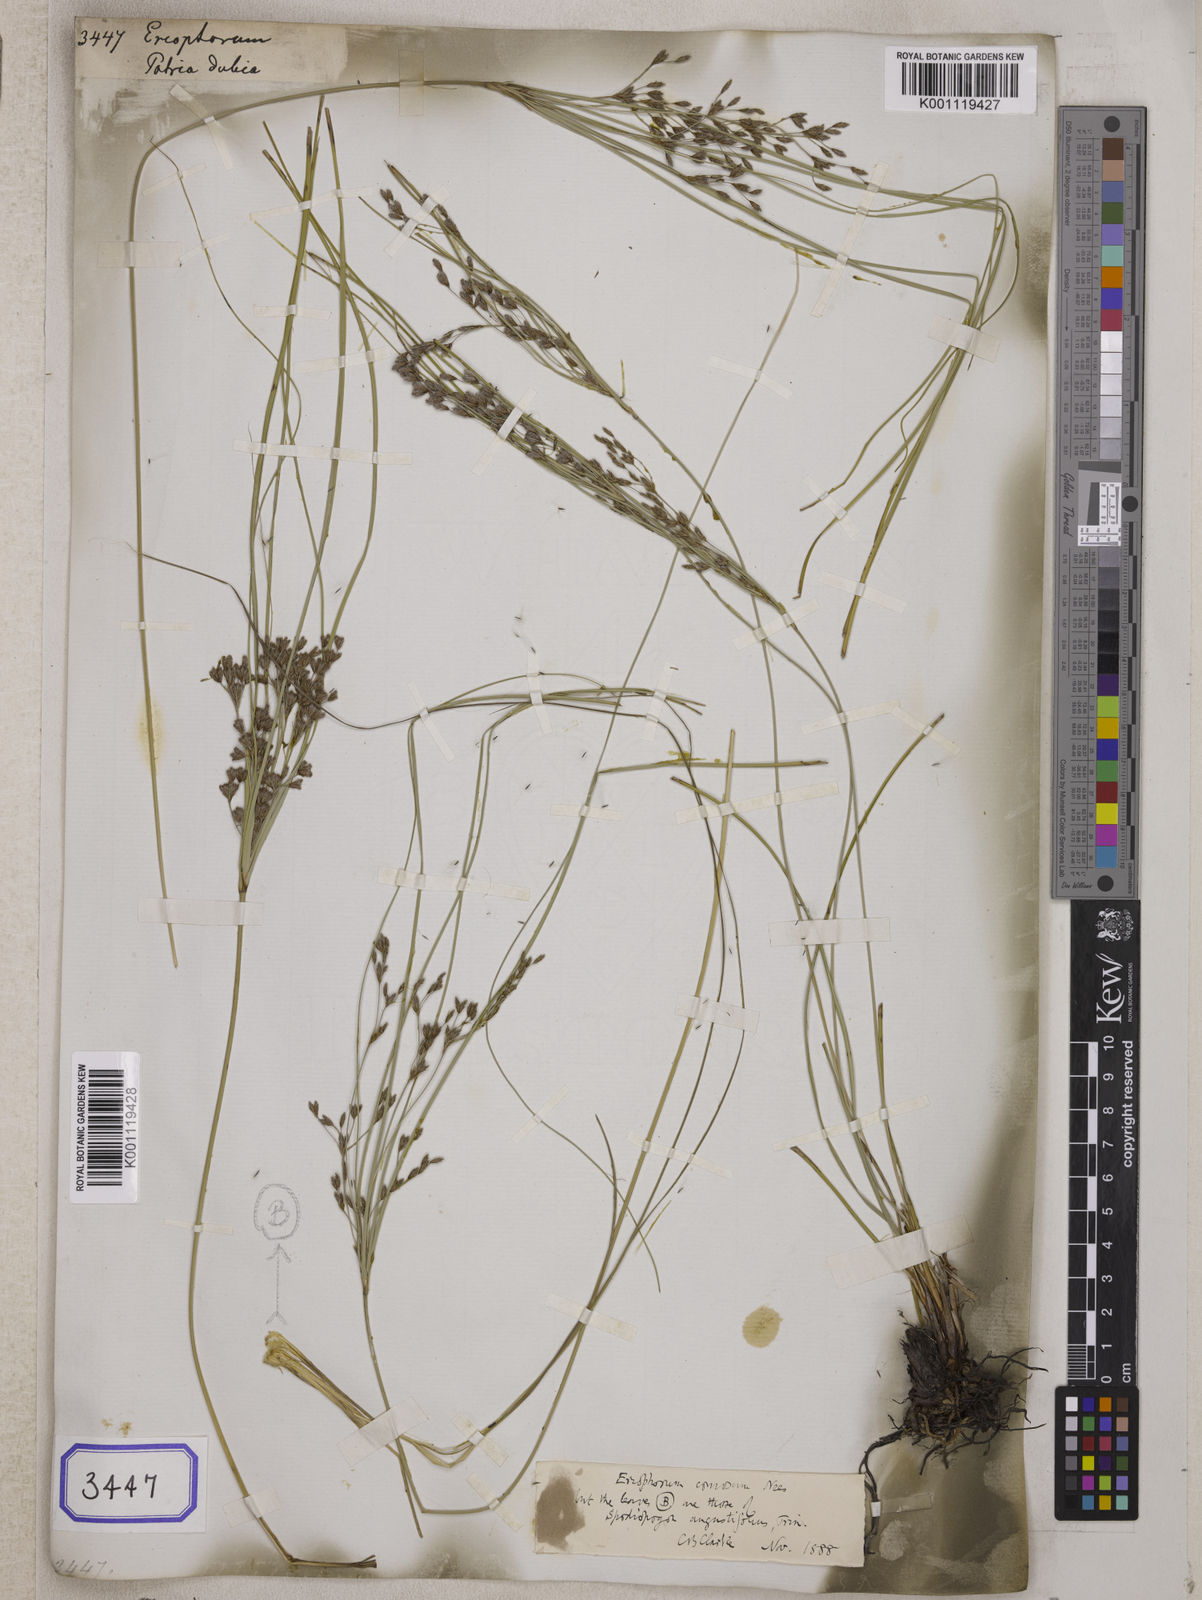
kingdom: Plantae
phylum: Tracheophyta
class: Liliopsida
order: Poales
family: Cyperaceae
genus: Eriophorum
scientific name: Eriophorum
